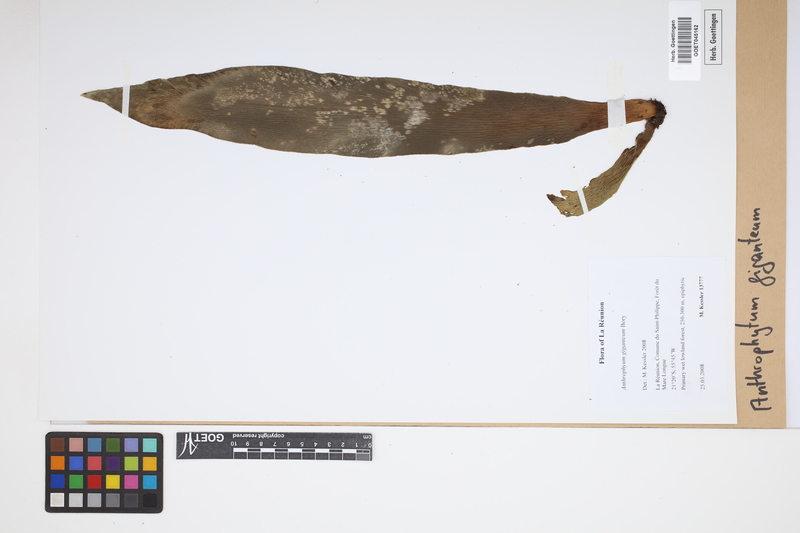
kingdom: Plantae
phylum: Tracheophyta
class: Polypodiopsida
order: Polypodiales
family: Pteridaceae
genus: Antrophyopsis
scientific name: Antrophyopsis gigantea
